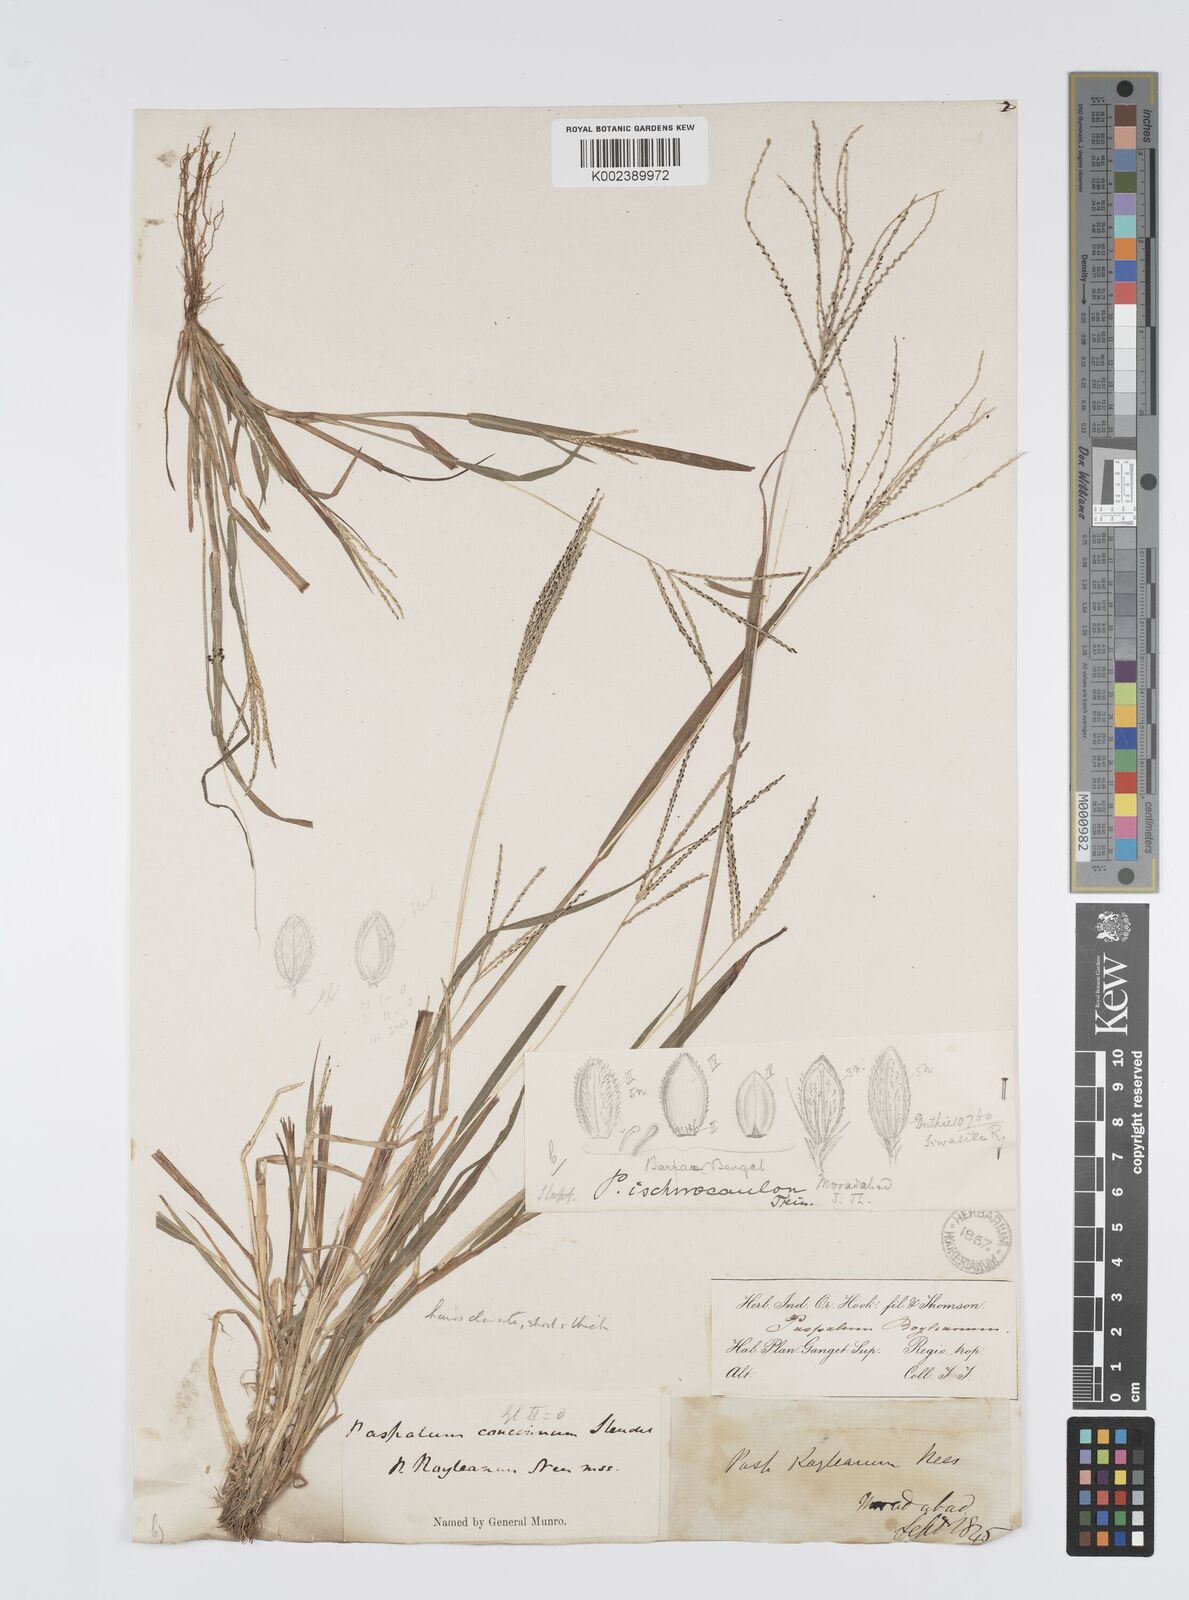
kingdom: Plantae
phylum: Tracheophyta
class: Liliopsida
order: Poales
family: Poaceae
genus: Digitaria
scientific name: Digitaria stricta
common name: Crabgrass
